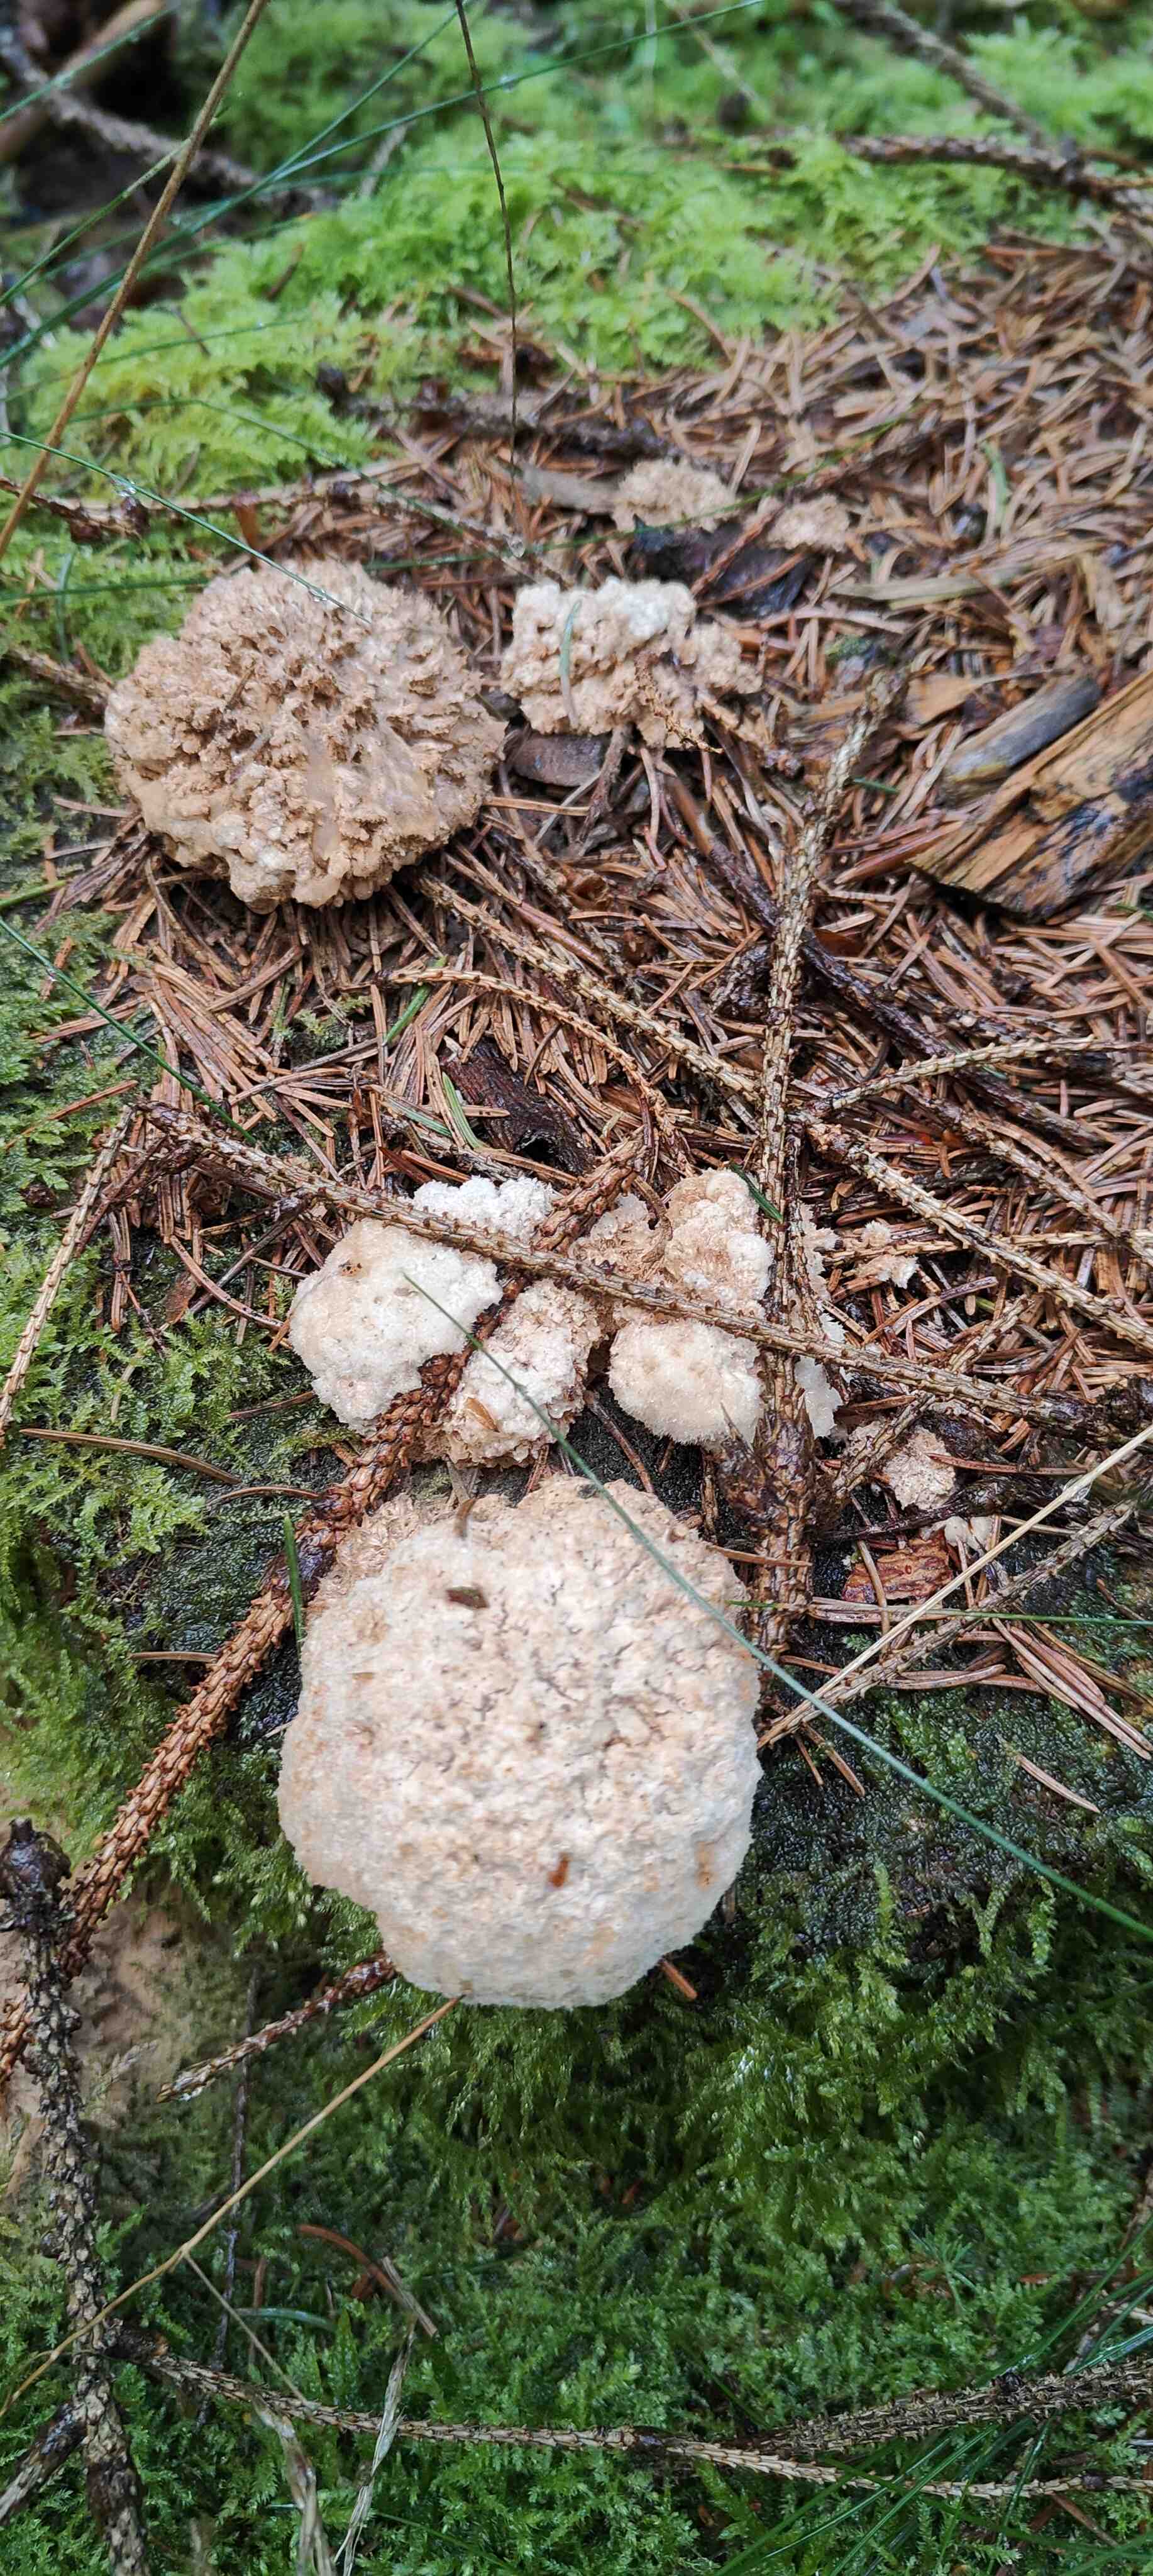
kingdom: Fungi
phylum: Basidiomycota
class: Agaricomycetes
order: Polyporales
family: Dacryobolaceae
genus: Postia
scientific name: Postia ptychogaster
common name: støvende kødporesvamp
